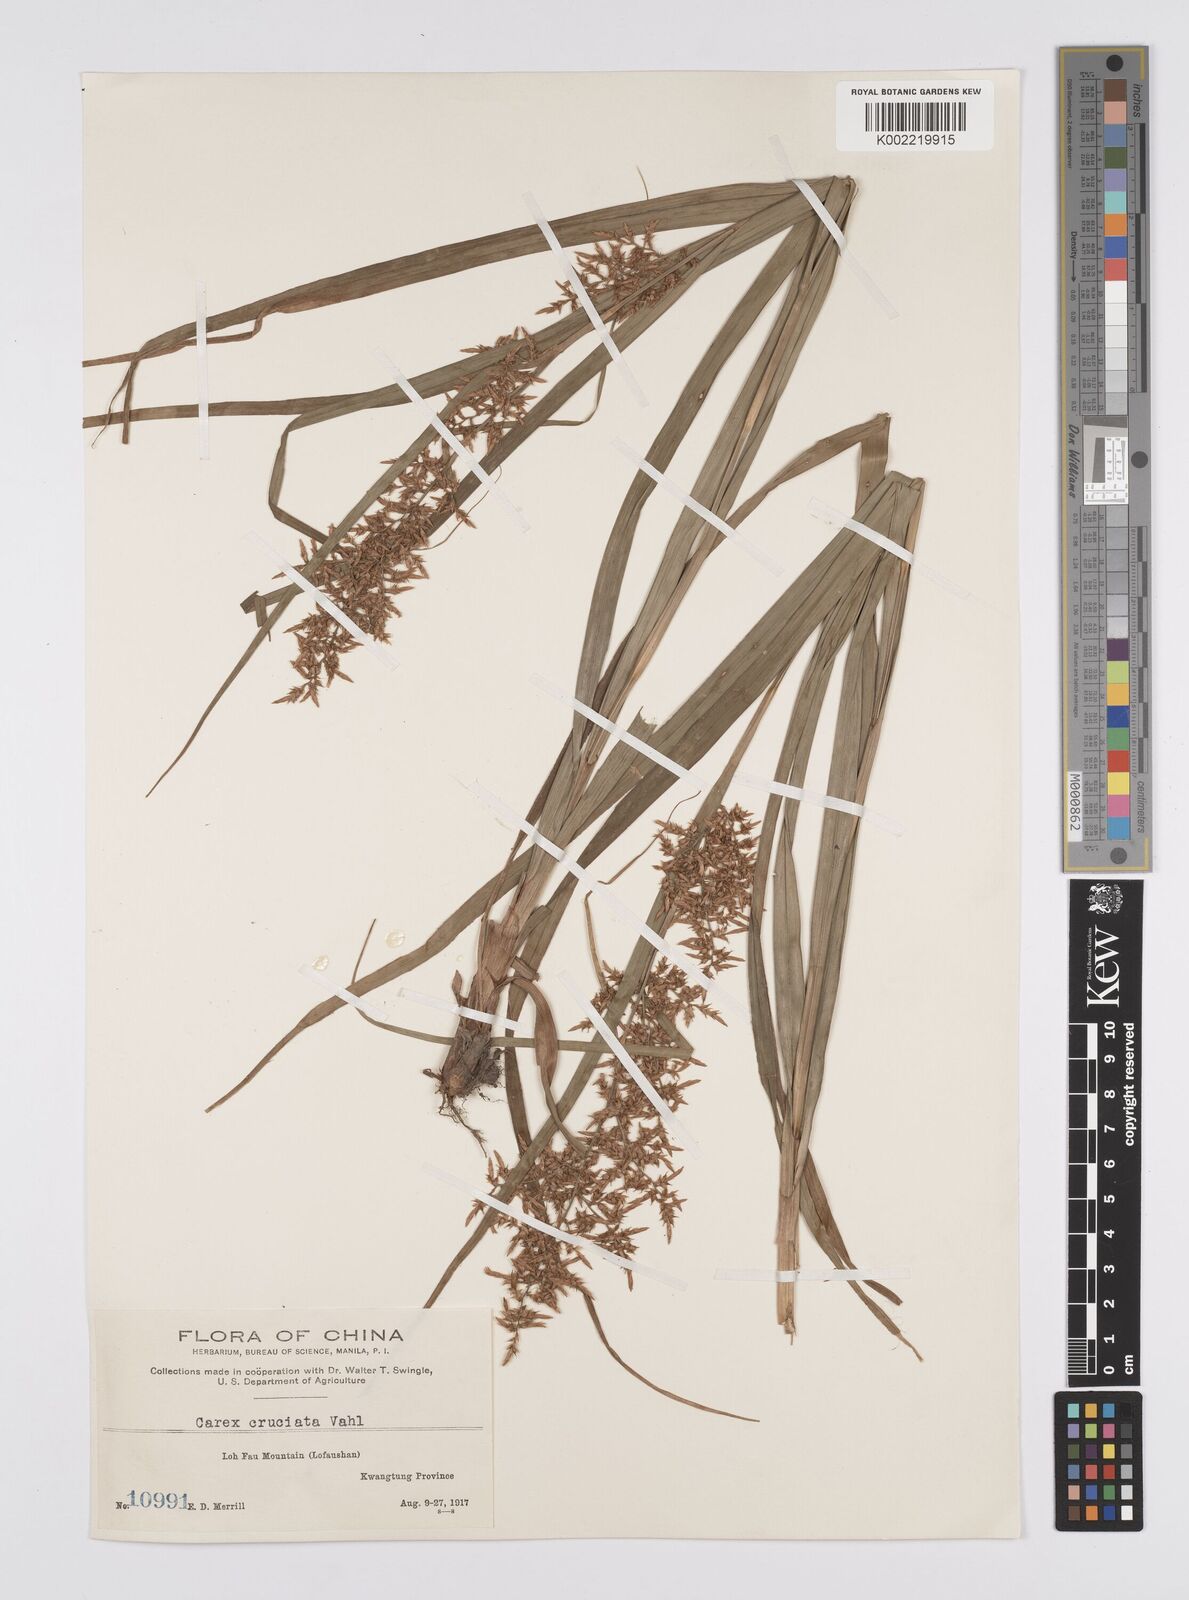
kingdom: Plantae
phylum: Tracheophyta
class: Liliopsida
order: Poales
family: Cyperaceae
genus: Carex
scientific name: Carex cruciata
